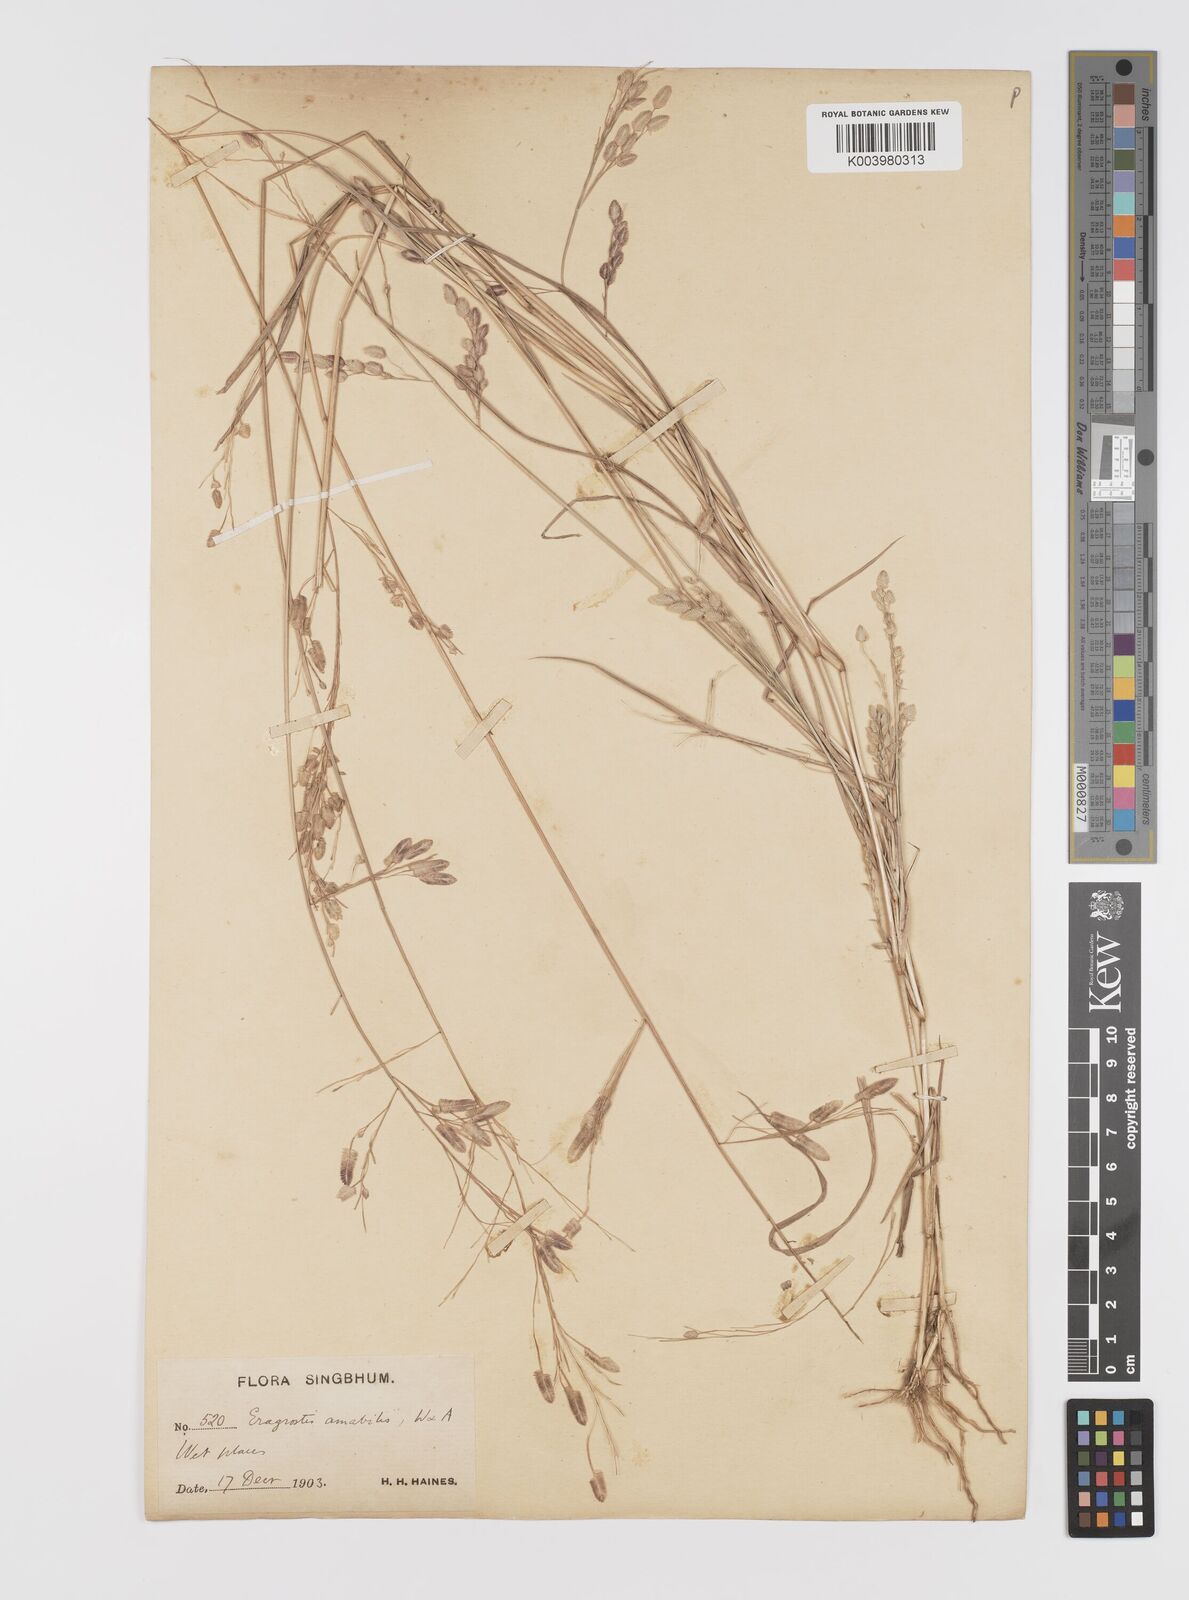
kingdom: Plantae
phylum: Tracheophyta
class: Liliopsida
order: Poales
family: Poaceae
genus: Eragrostis
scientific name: Eragrostis unioloides
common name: Chinese lovegrass
